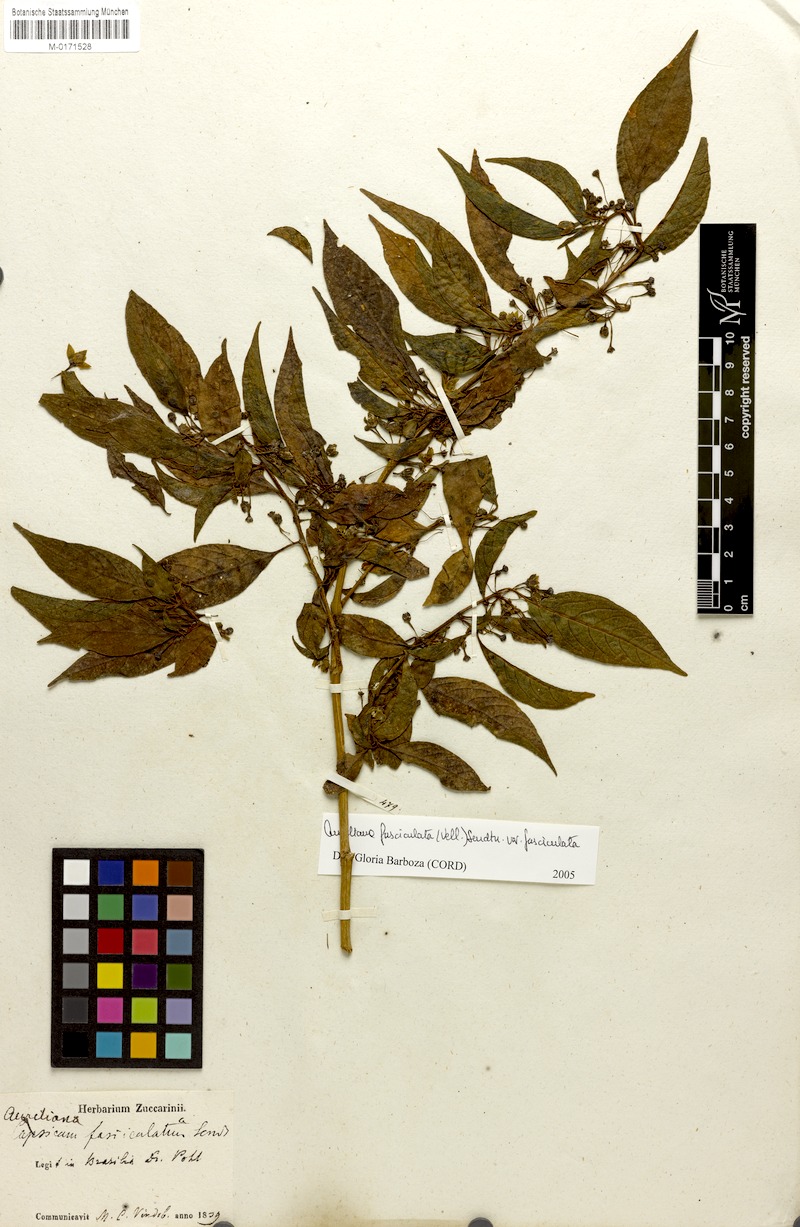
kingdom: Plantae
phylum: Tracheophyta
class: Magnoliopsida
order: Solanales
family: Solanaceae
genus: Athenaea
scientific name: Athenaea fasciculata
